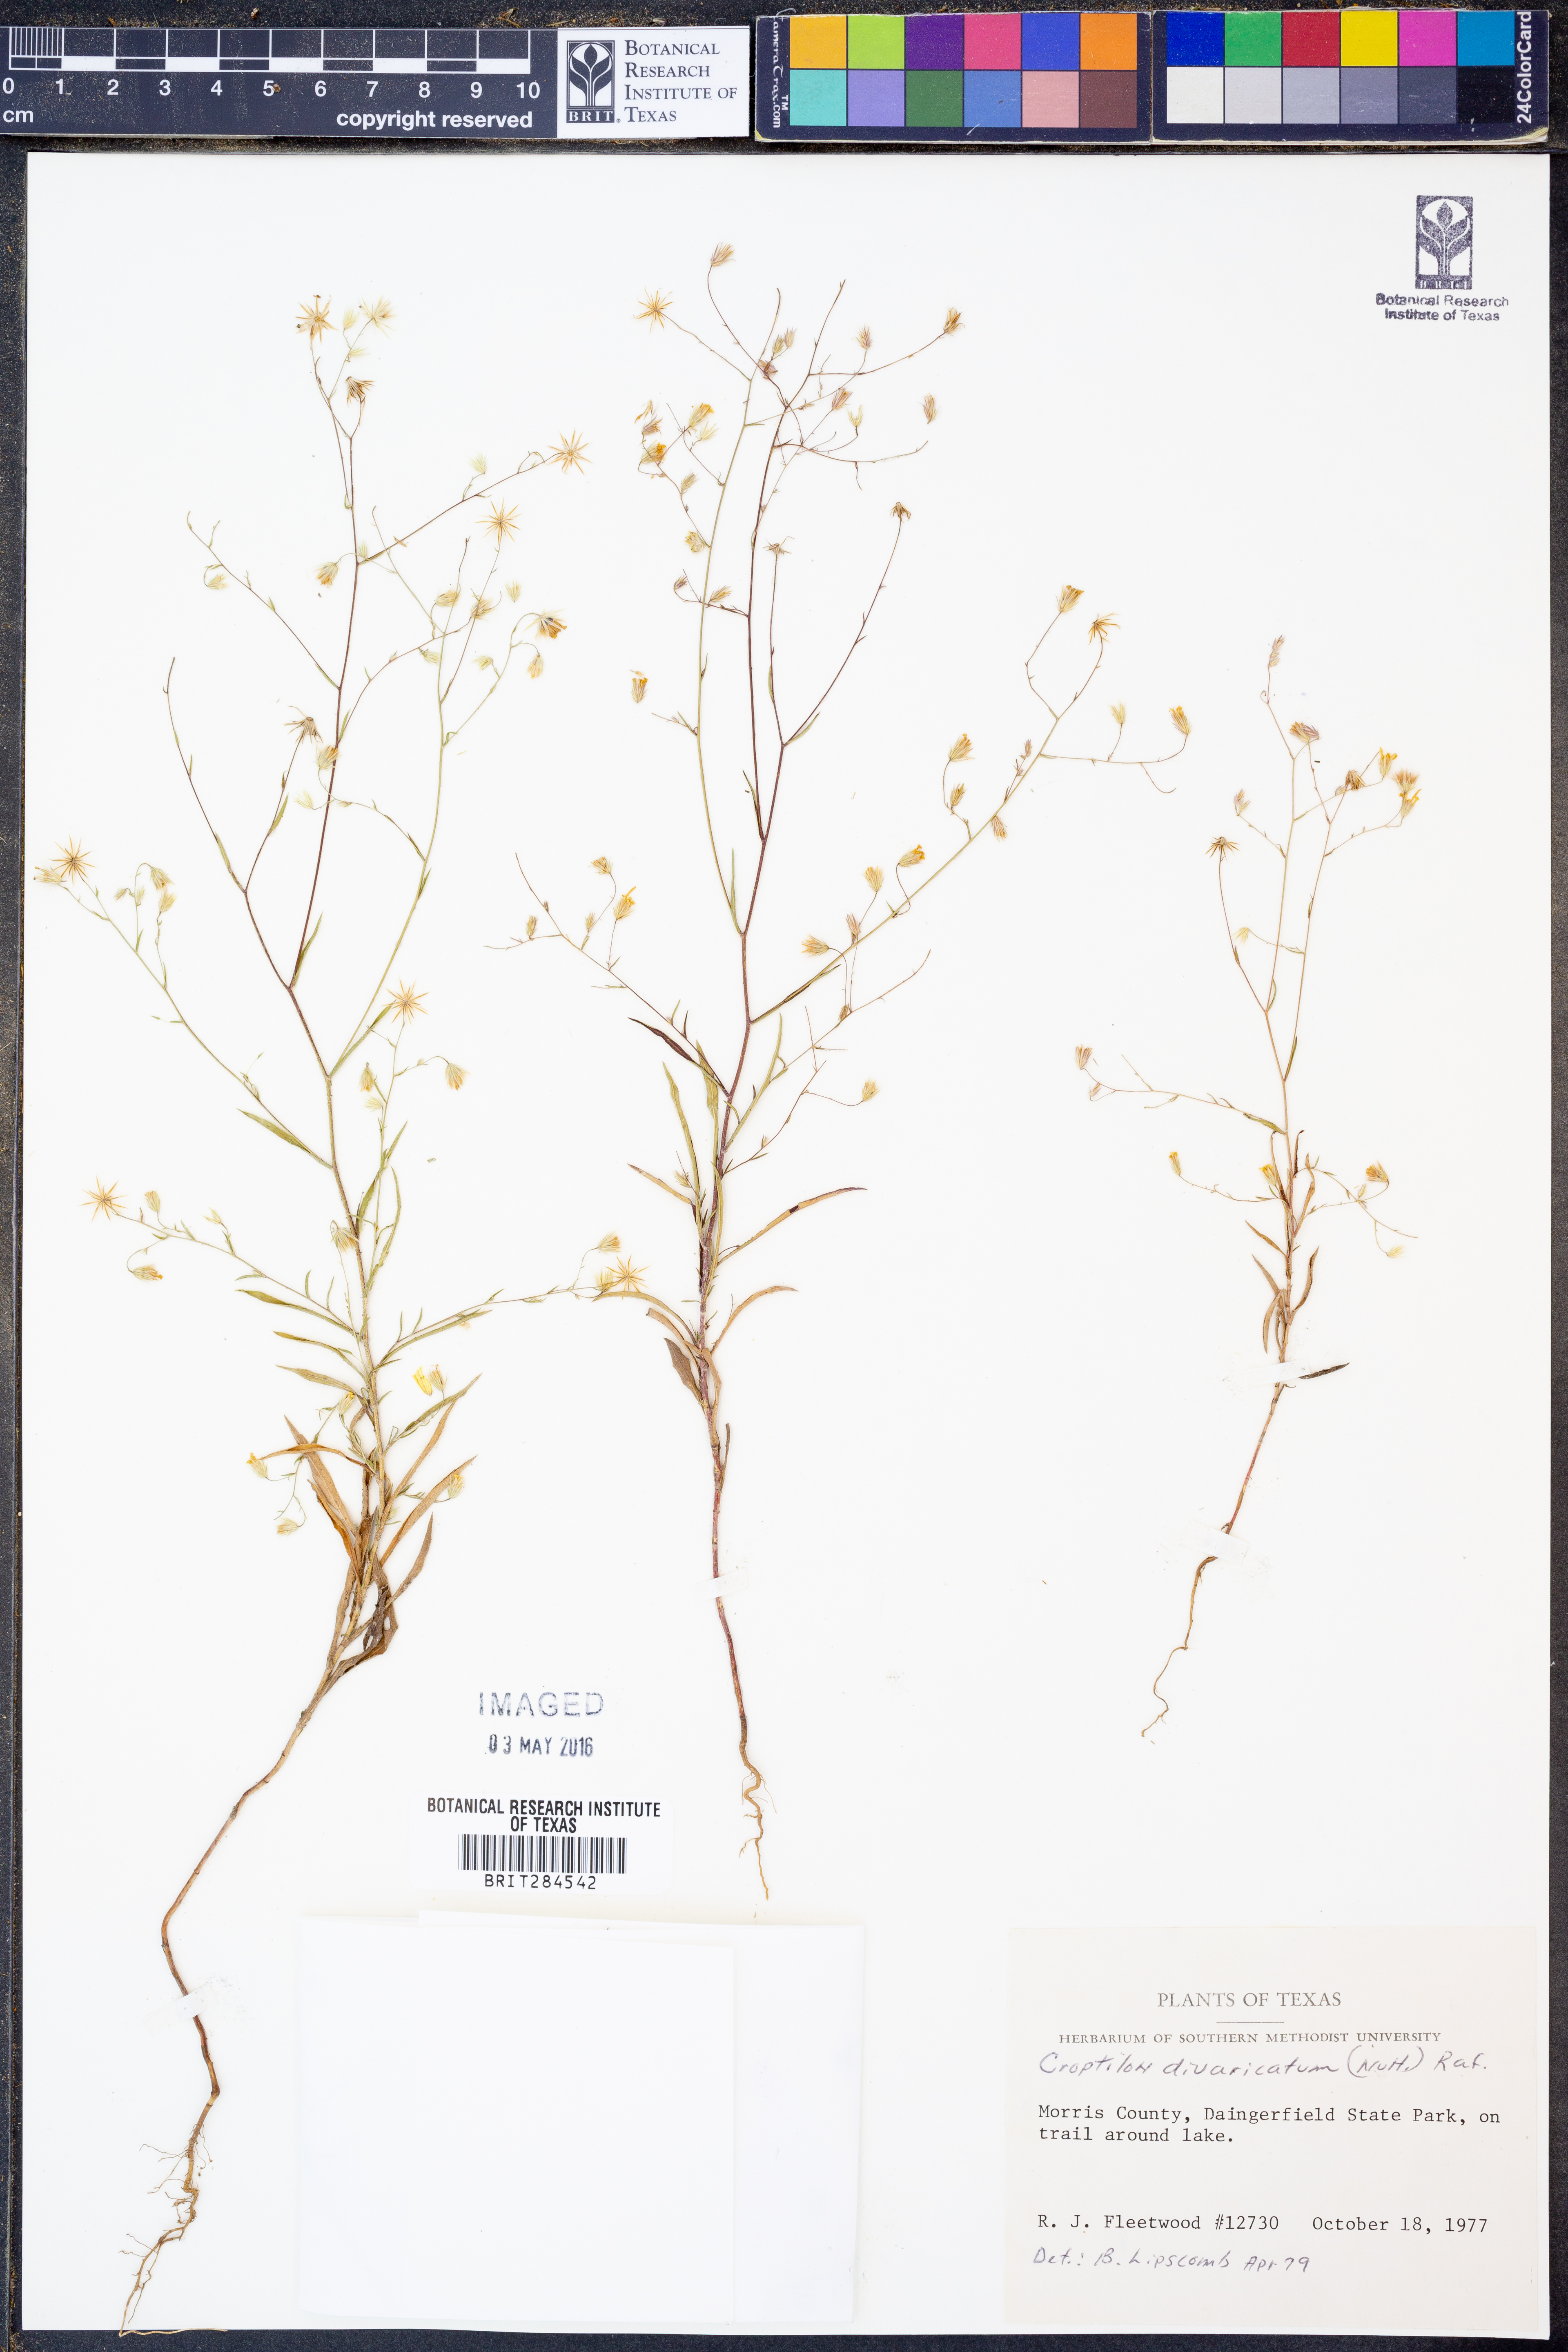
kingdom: Plantae
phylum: Tracheophyta
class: Magnoliopsida
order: Asterales
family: Asteraceae
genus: Croptilon
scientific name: Croptilon divaricatum
